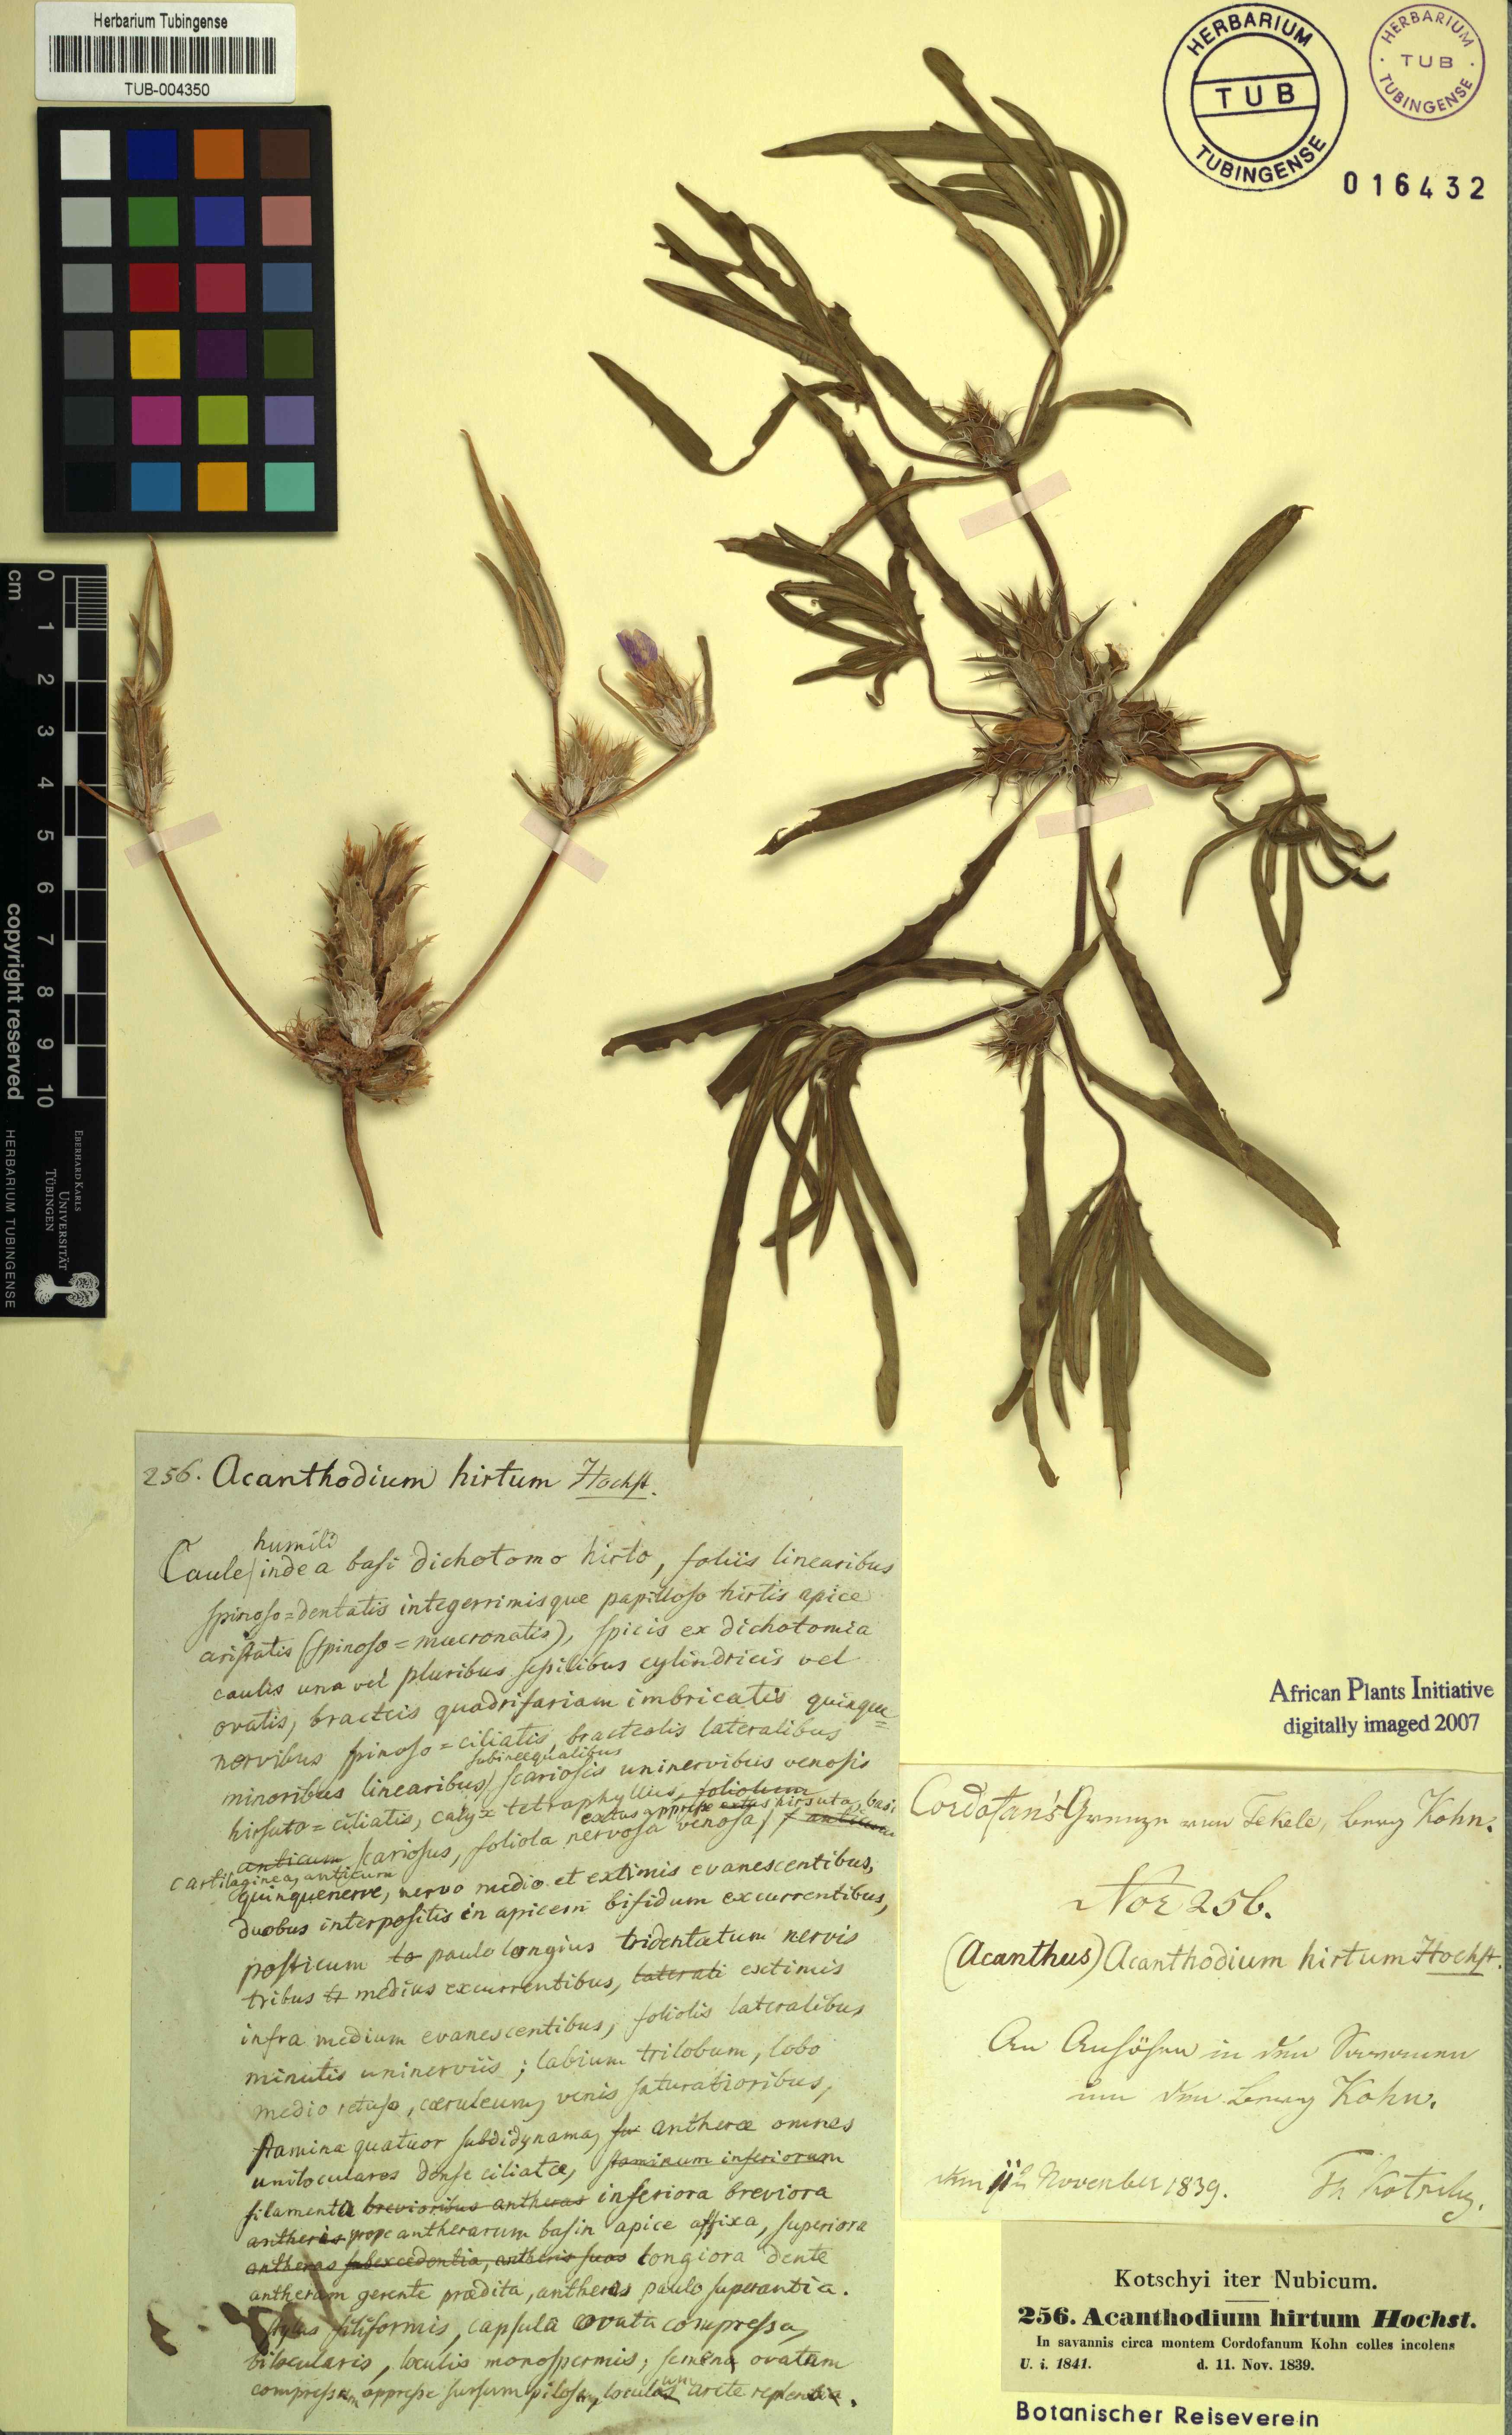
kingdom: Plantae
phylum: Tracheophyta
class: Magnoliopsida
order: Lamiales
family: Acanthaceae
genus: Blepharis
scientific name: Blepharis linearifolia
